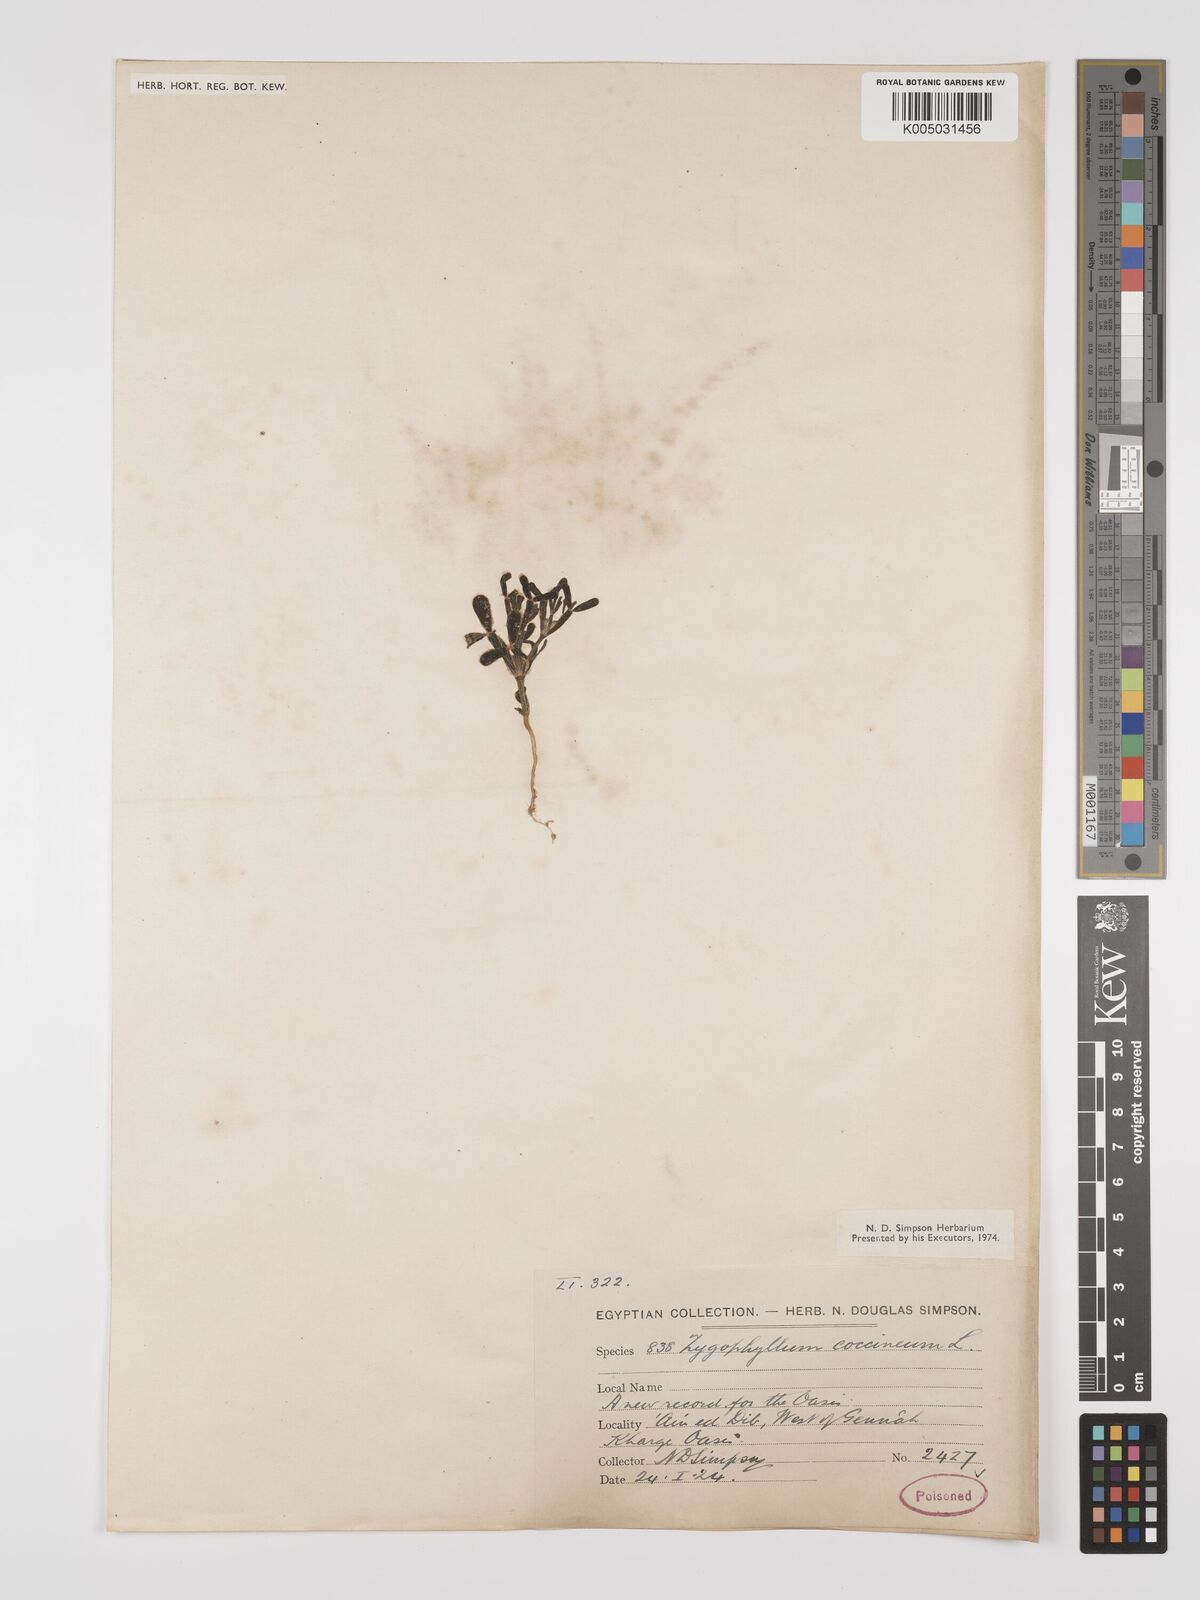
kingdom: Plantae
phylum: Tracheophyta
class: Magnoliopsida
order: Zygophyllales
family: Zygophyllaceae
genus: Zygophyllum
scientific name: Zygophyllum
